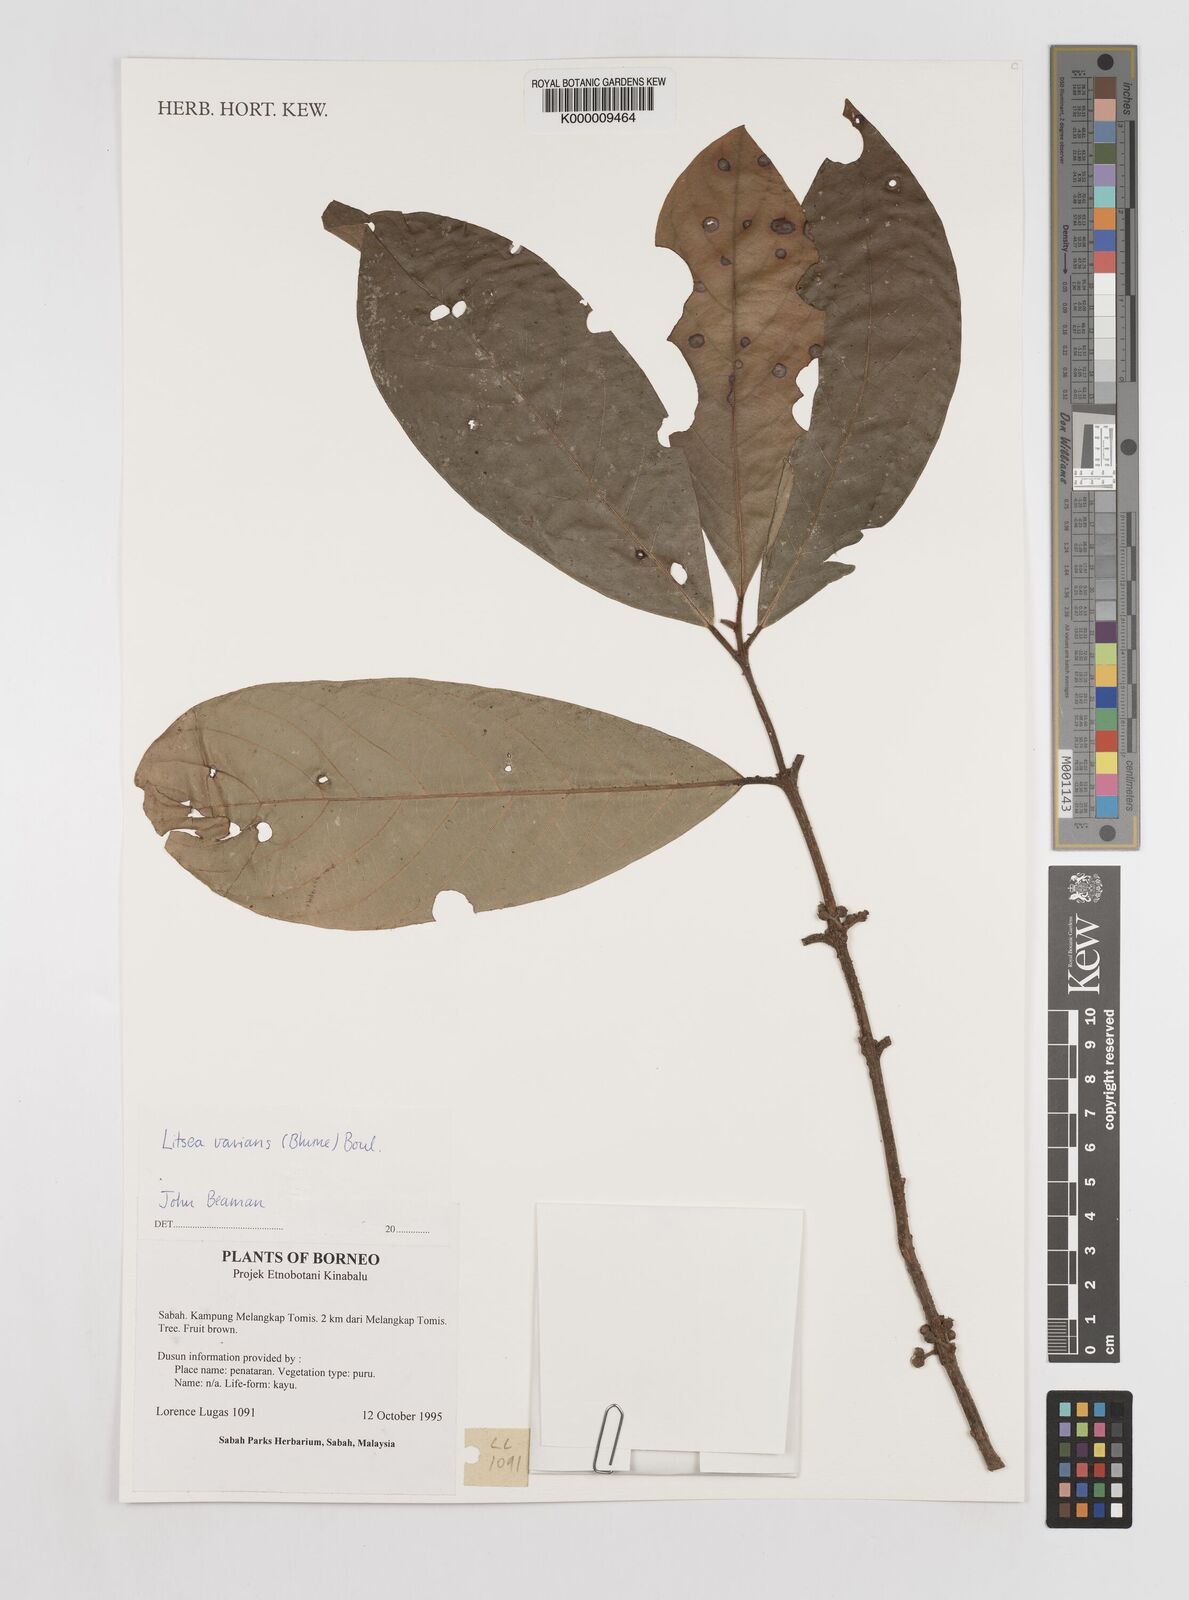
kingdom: Plantae
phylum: Tracheophyta
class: Magnoliopsida
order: Laurales
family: Lauraceae
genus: Litsea
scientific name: Litsea varians
